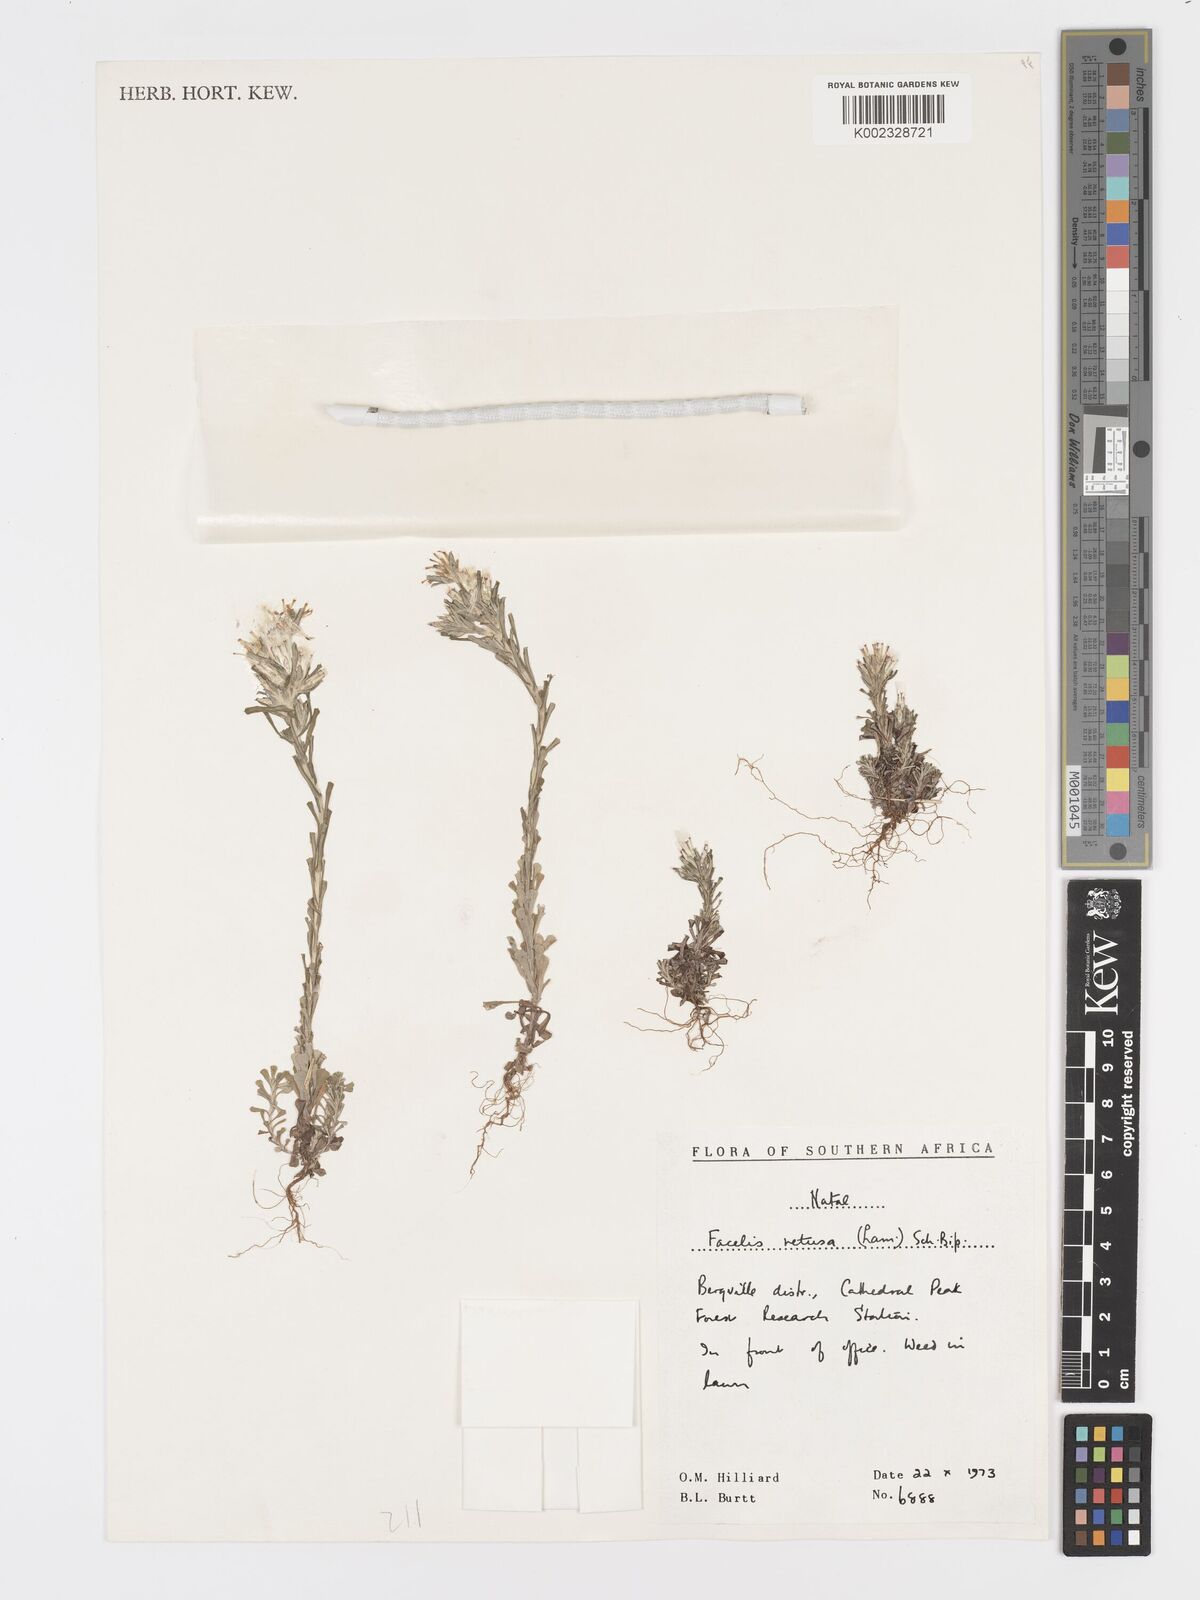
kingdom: Plantae
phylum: Tracheophyta
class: Magnoliopsida
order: Asterales
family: Asteraceae
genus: Facelis
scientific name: Facelis retusa
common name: Annual trampweed
